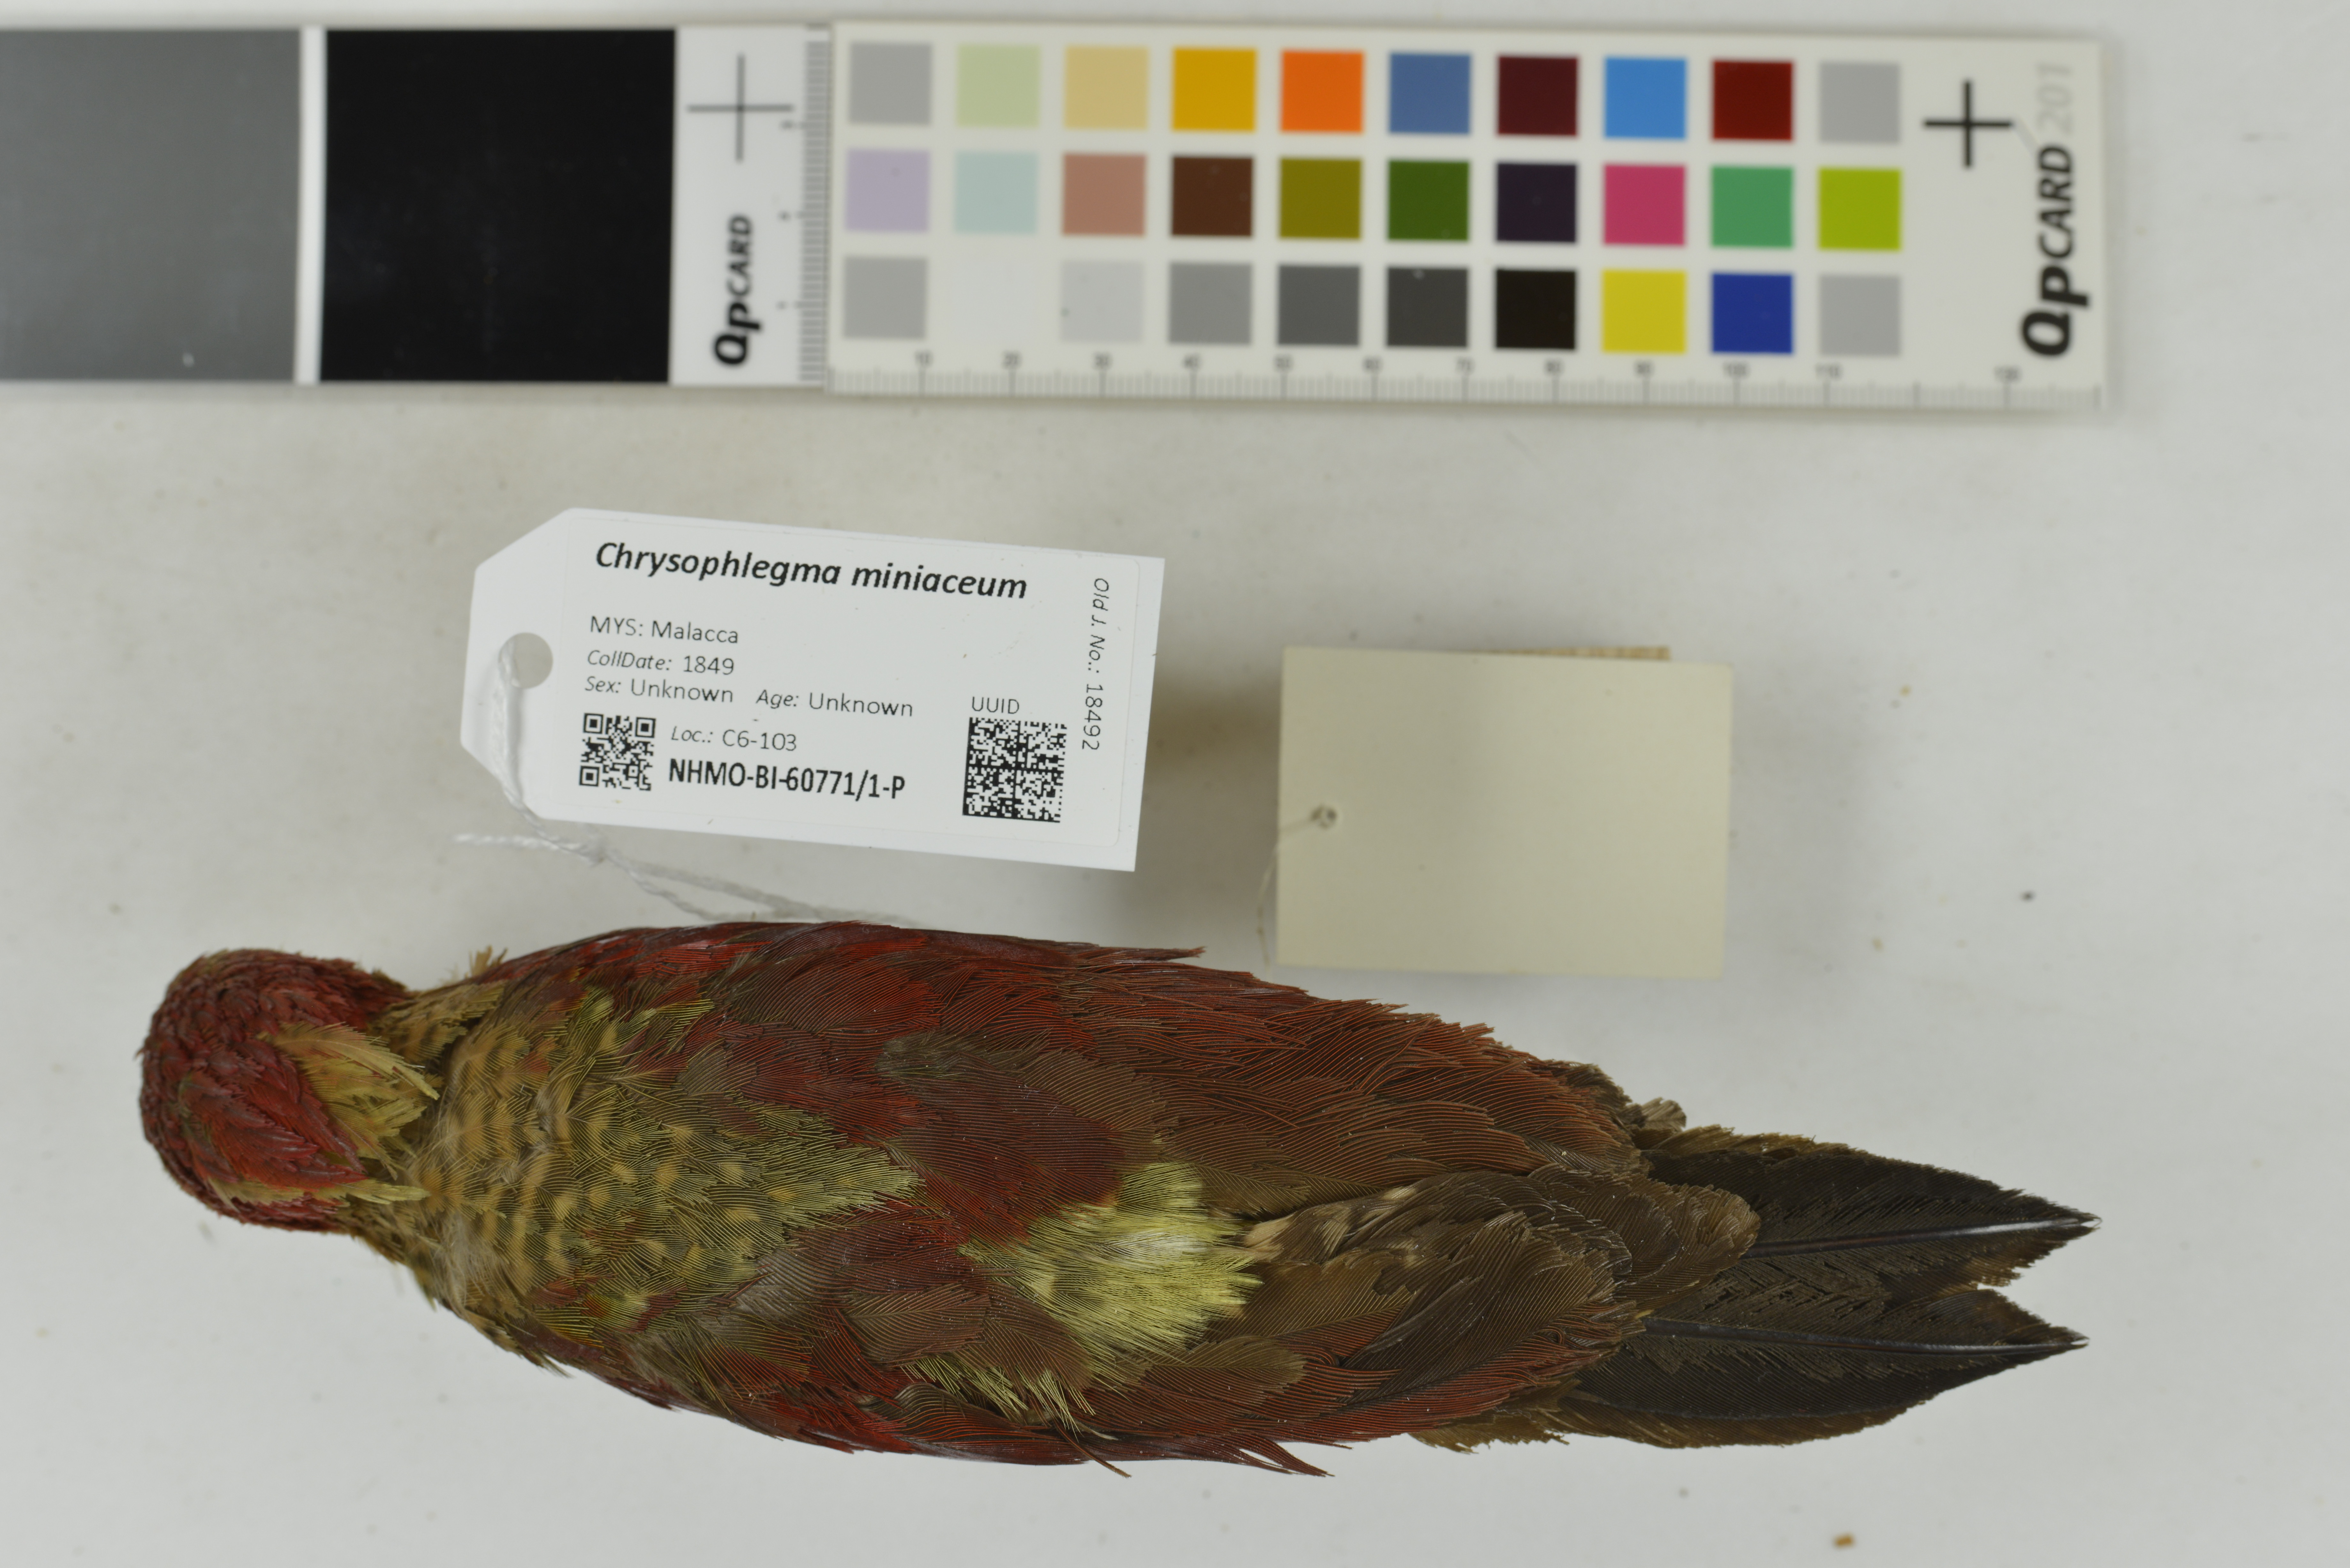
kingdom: Animalia
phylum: Chordata
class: Aves
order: Piciformes
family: Picidae
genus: Chrysophlegma
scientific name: Chrysophlegma miniaceum
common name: Banded woodpecker
